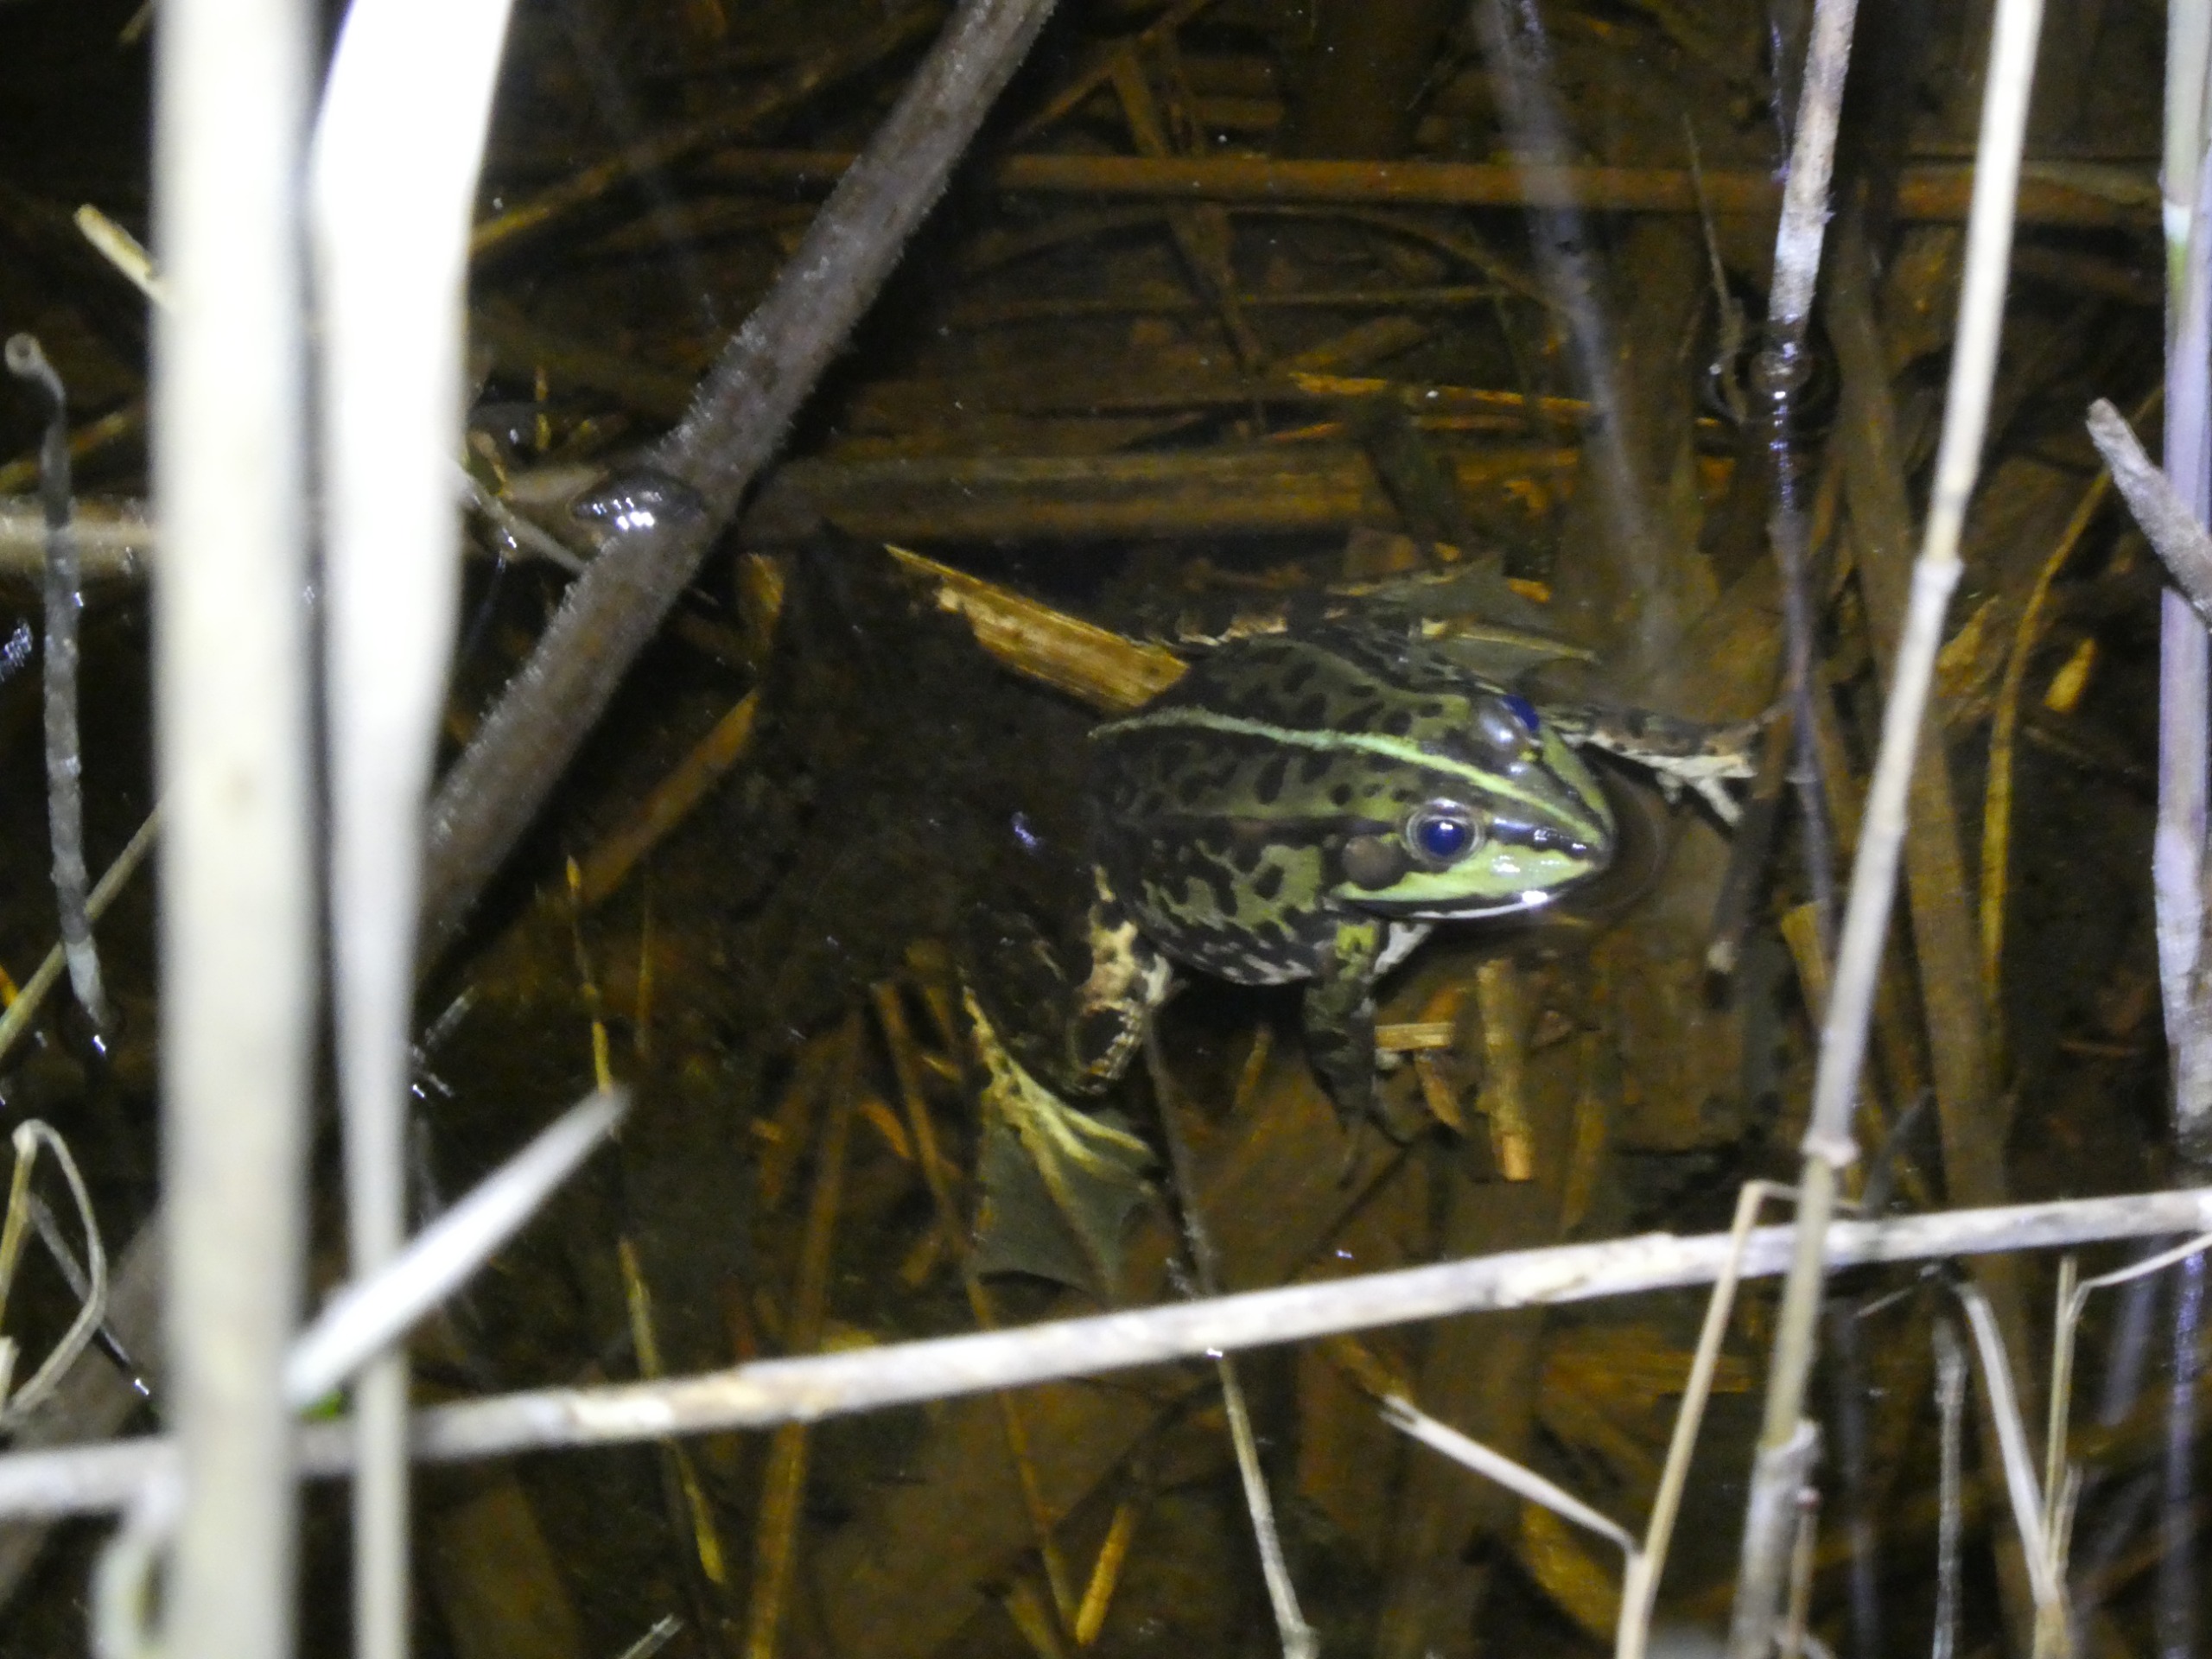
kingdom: Animalia
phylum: Chordata
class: Amphibia
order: Anura
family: Ranidae
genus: Pelophylax
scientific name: Pelophylax lessonae
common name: Grøn frø
